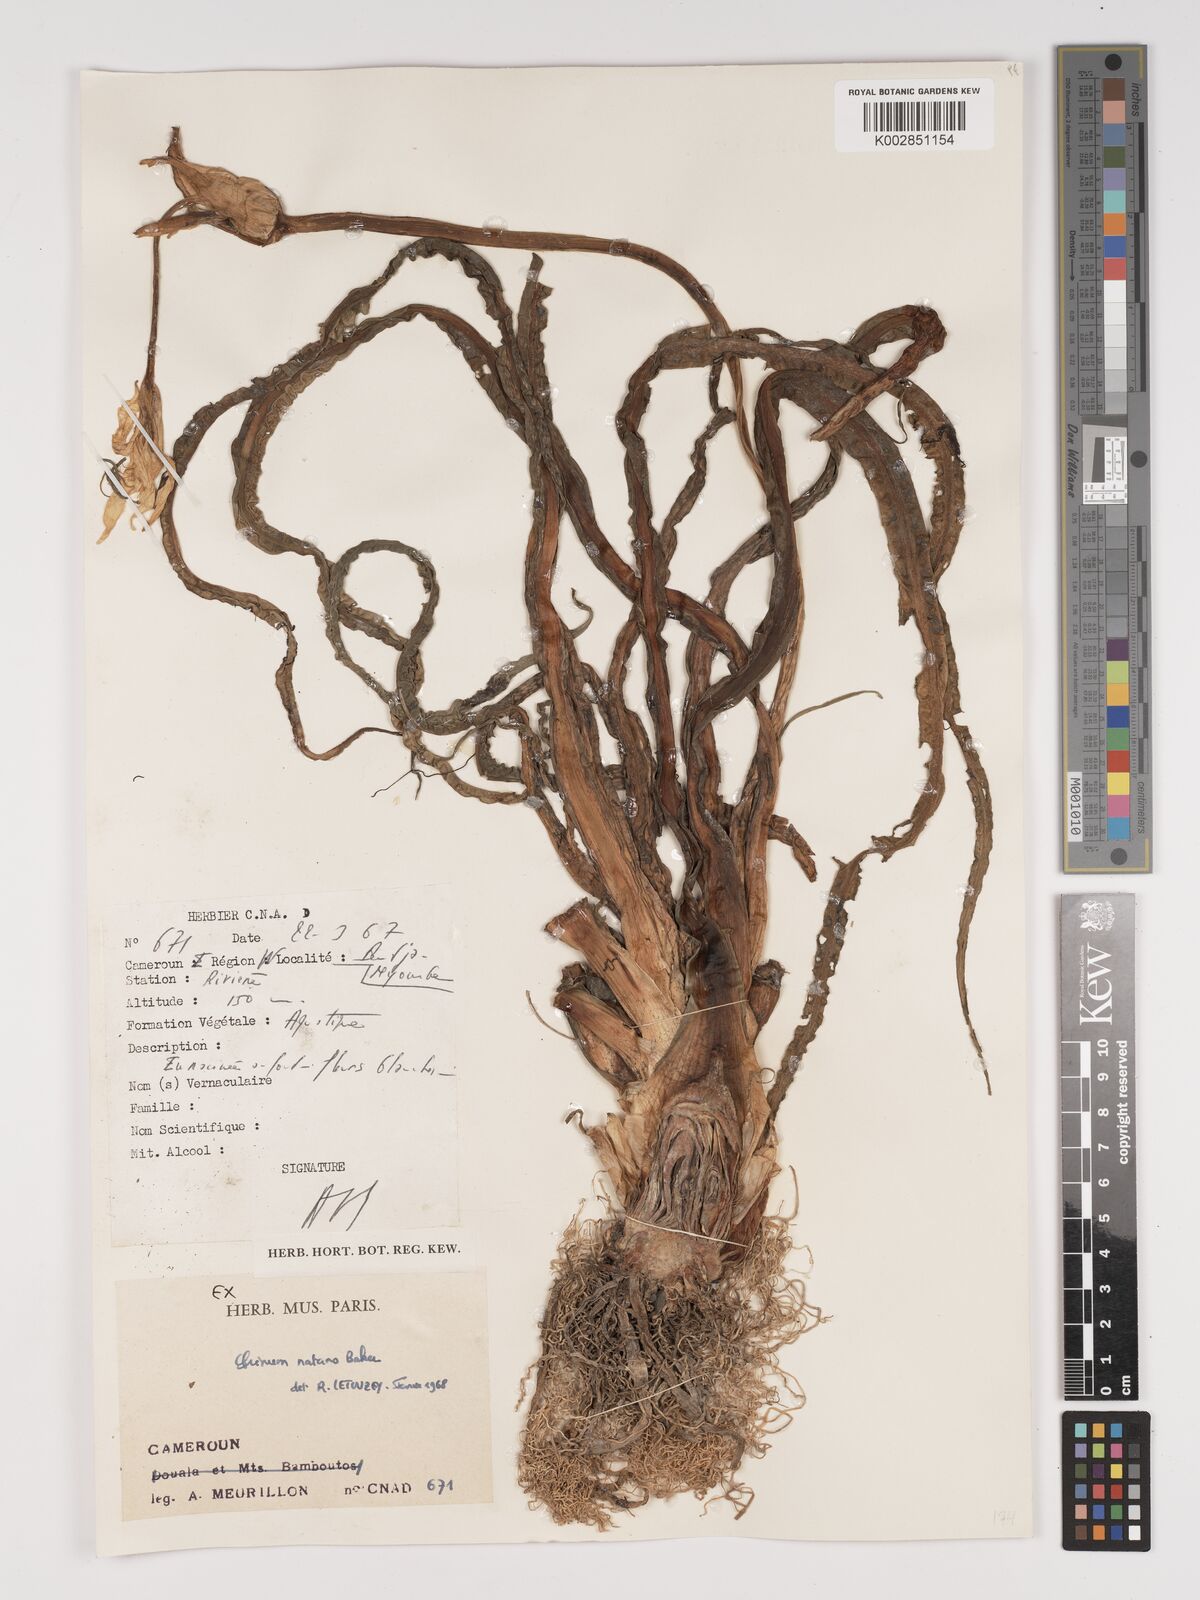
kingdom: Plantae
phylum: Tracheophyta
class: Liliopsida
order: Asparagales
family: Amaryllidaceae
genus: Crinum
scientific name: Crinum natans
